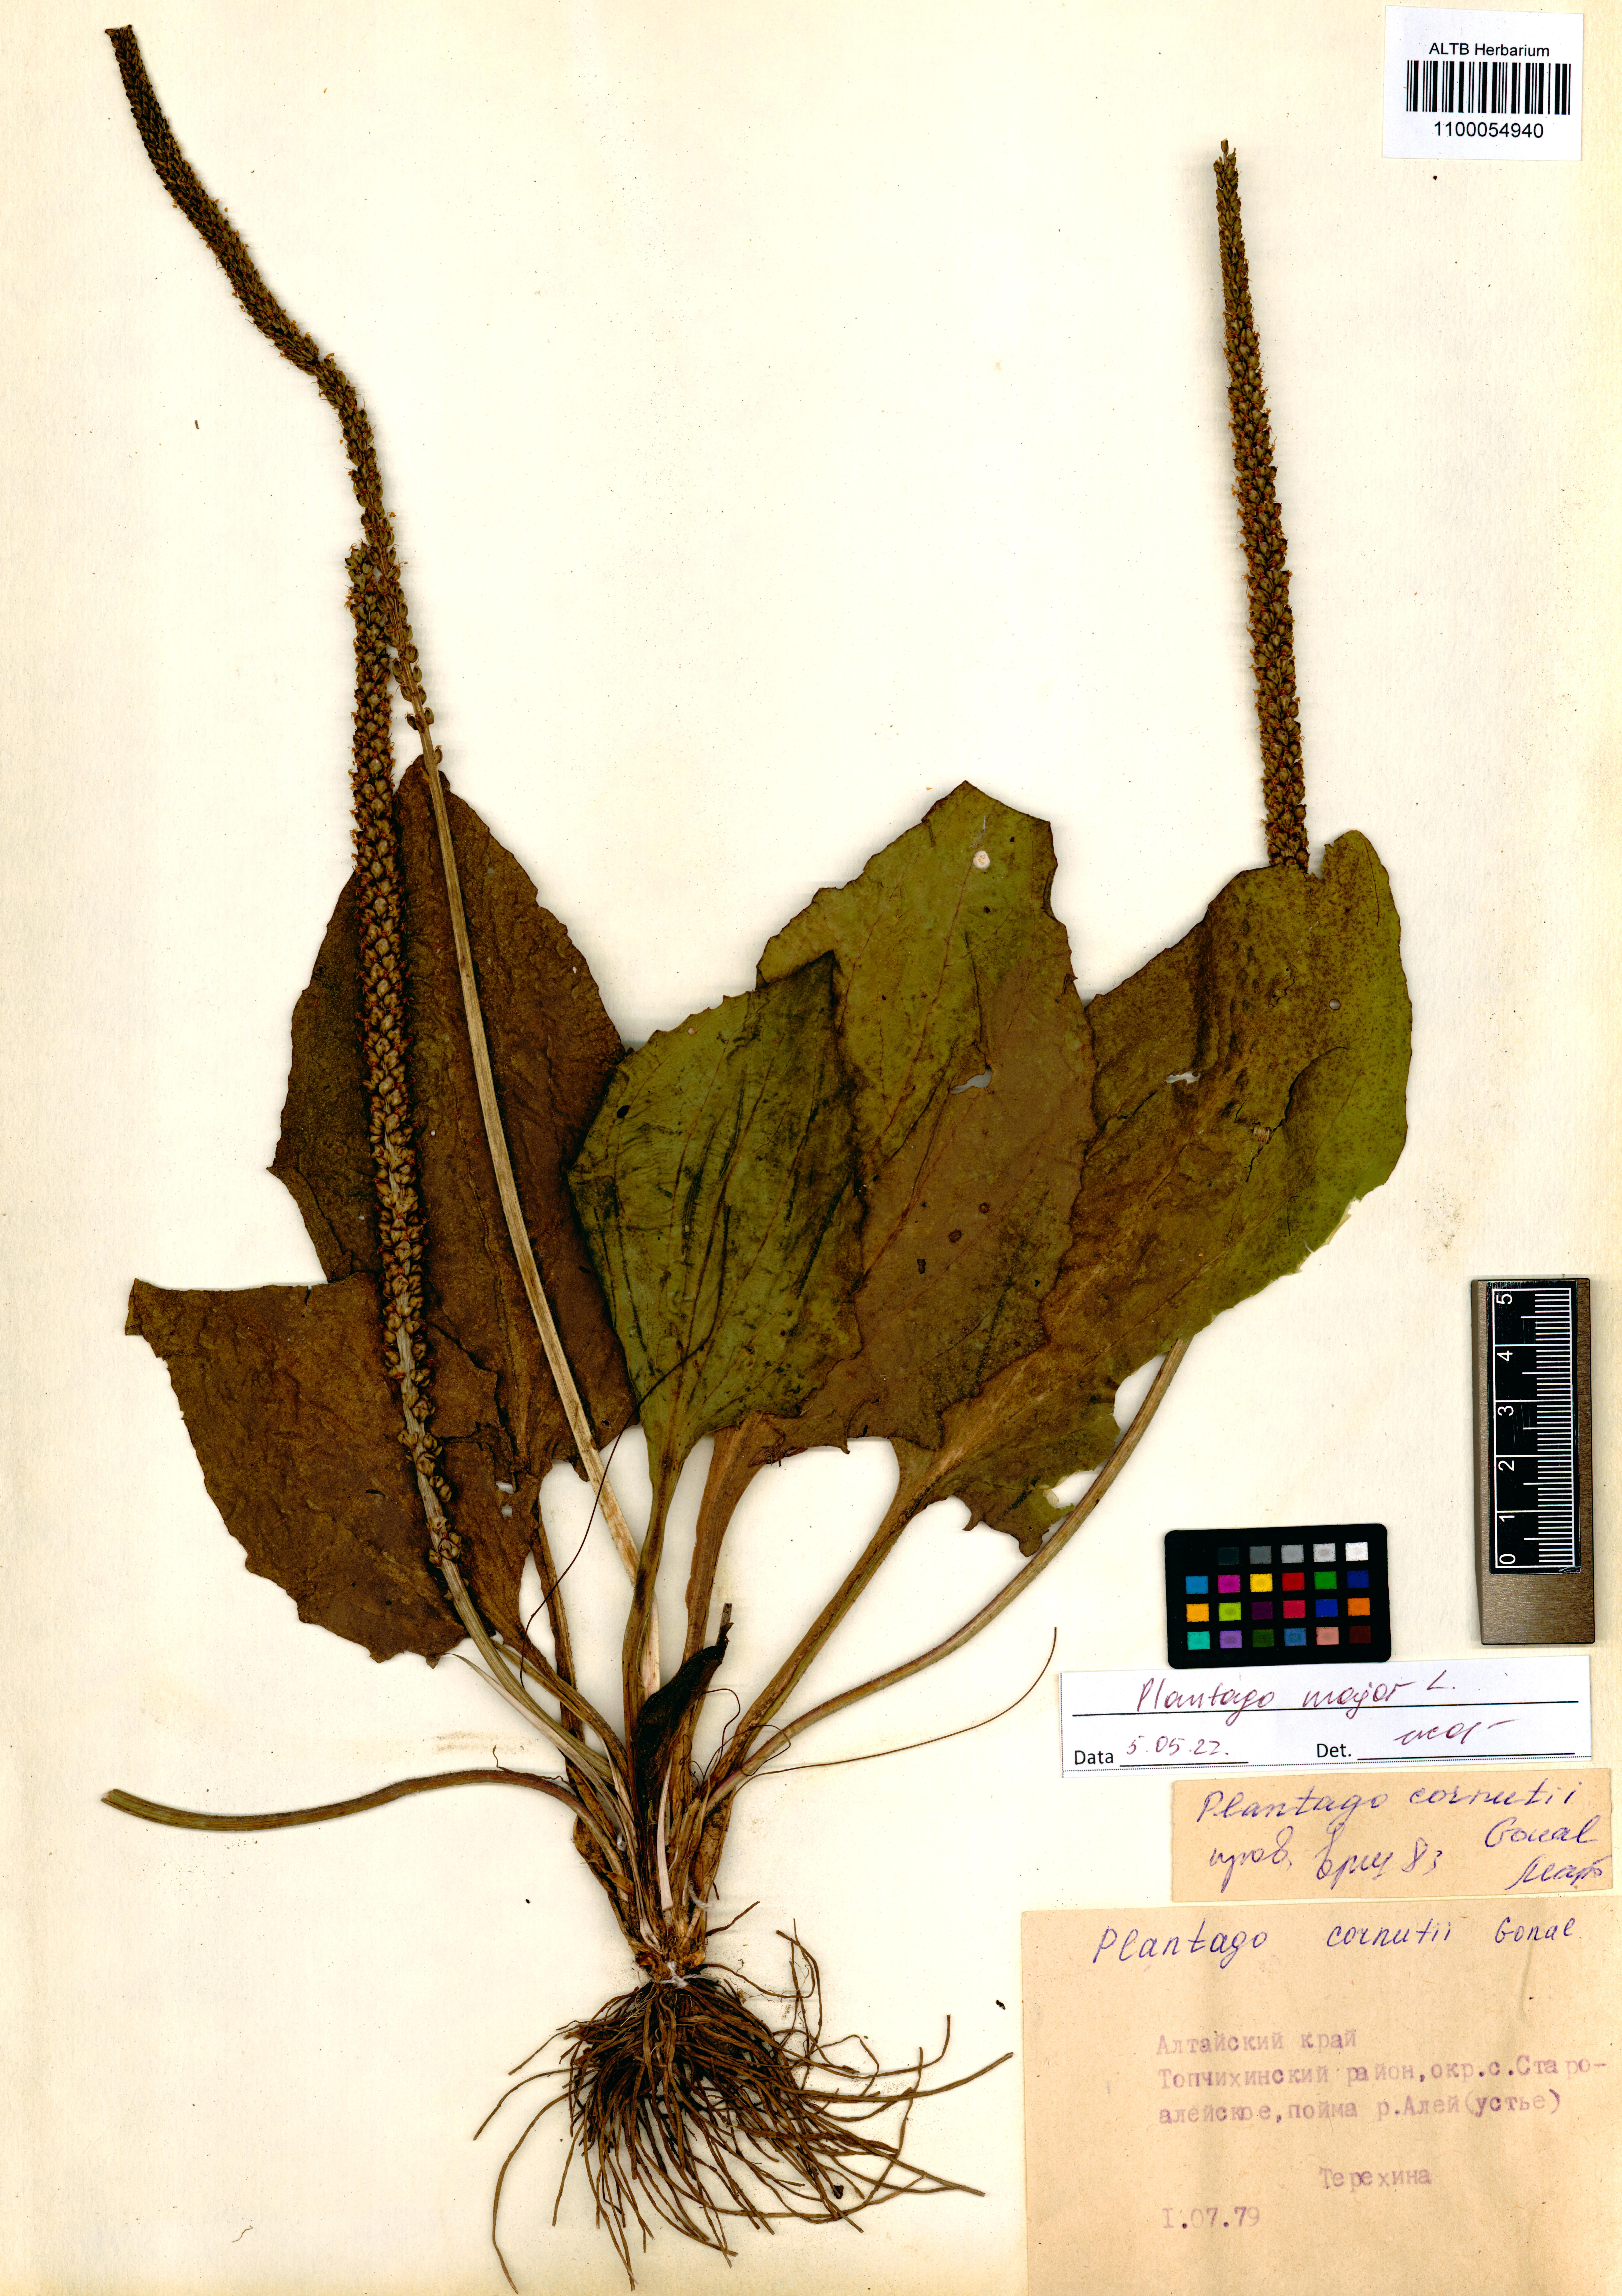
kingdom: Plantae
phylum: Tracheophyta
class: Magnoliopsida
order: Lamiales
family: Plantaginaceae
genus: Plantago
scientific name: Plantago major
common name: Common plantain
